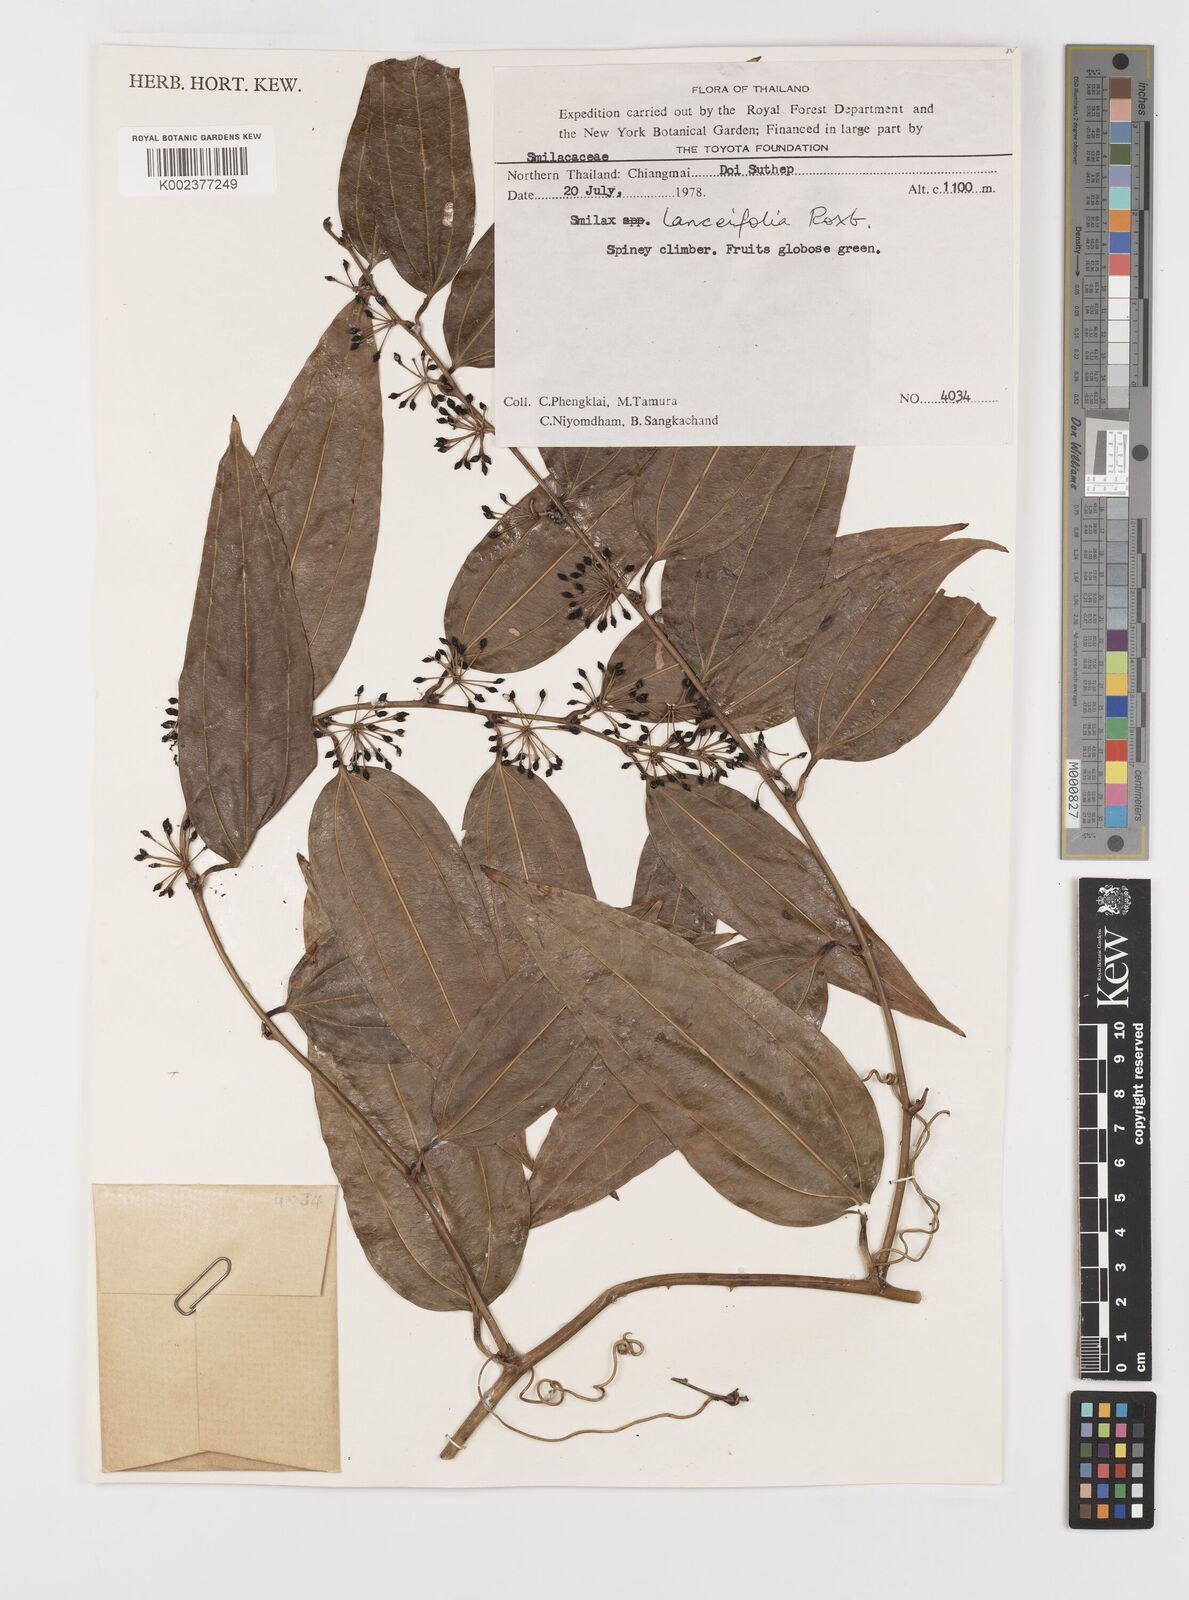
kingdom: Plantae
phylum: Tracheophyta
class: Liliopsida
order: Liliales
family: Smilacaceae
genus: Smilax
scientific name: Smilax lanceifolia
